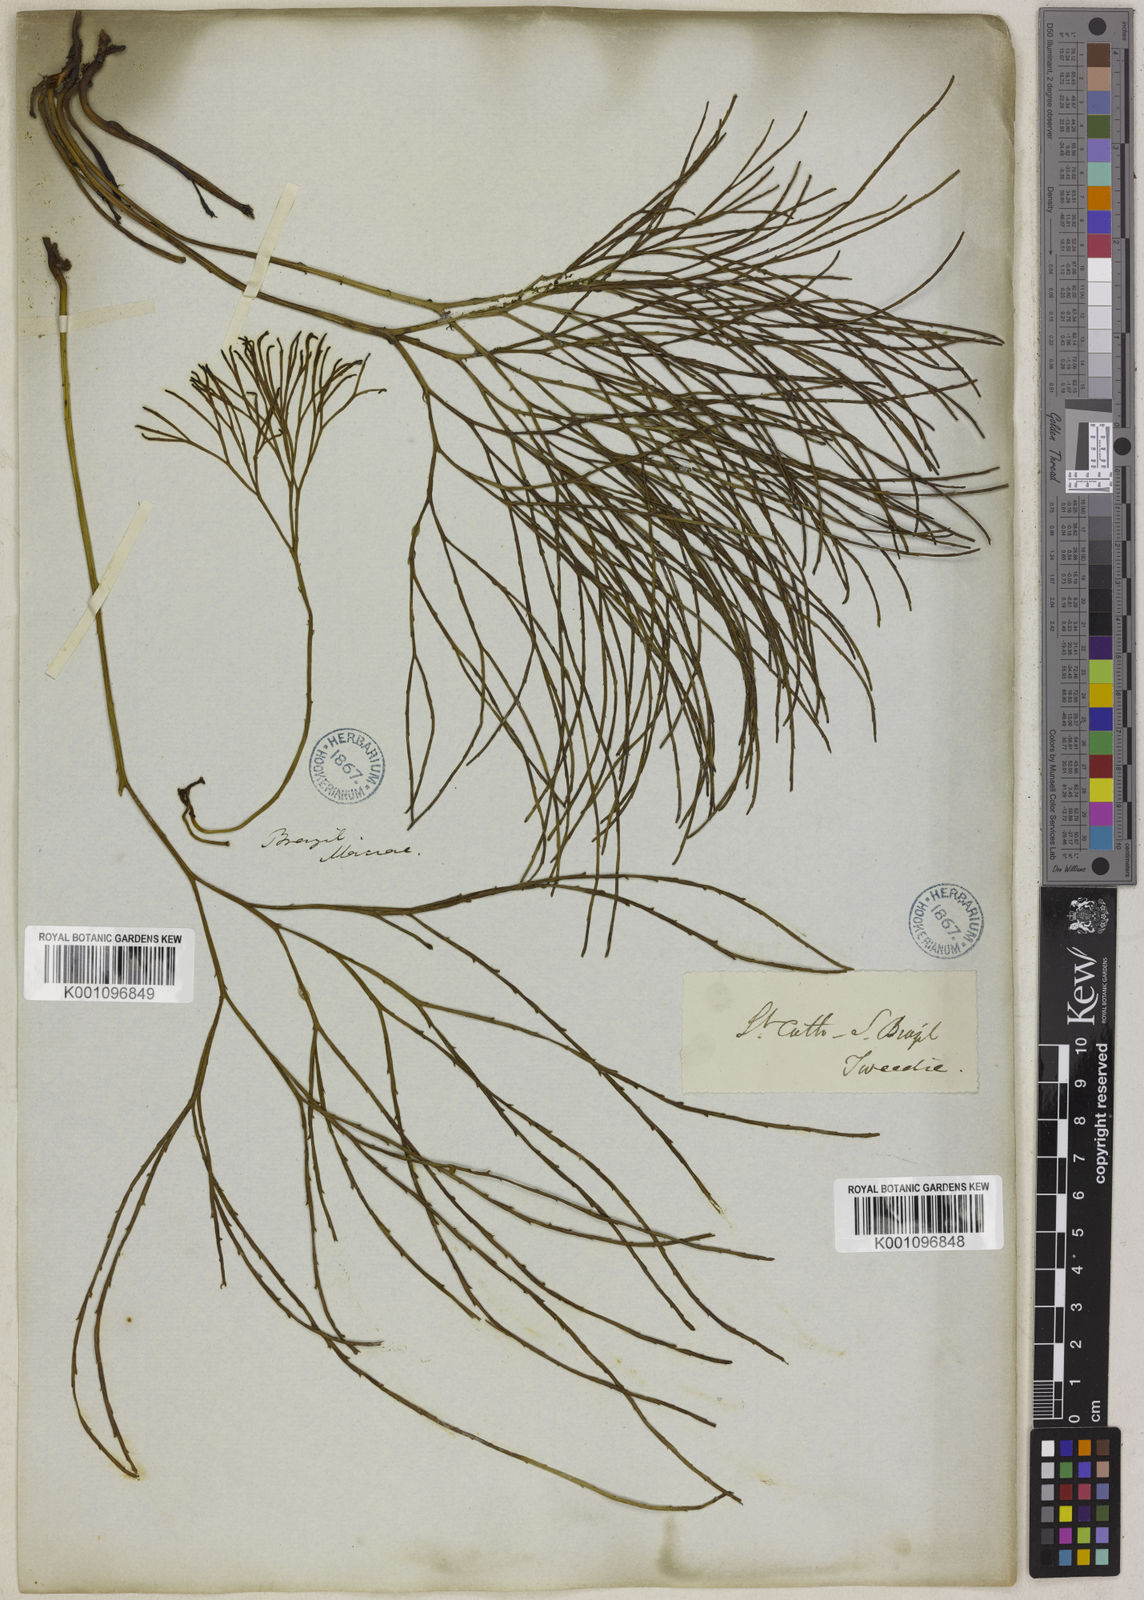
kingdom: Plantae
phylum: Tracheophyta
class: Polypodiopsida
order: Psilotales
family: Psilotaceae
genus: Psilotum
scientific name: Psilotum nudum
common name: Skeleton fork fern
